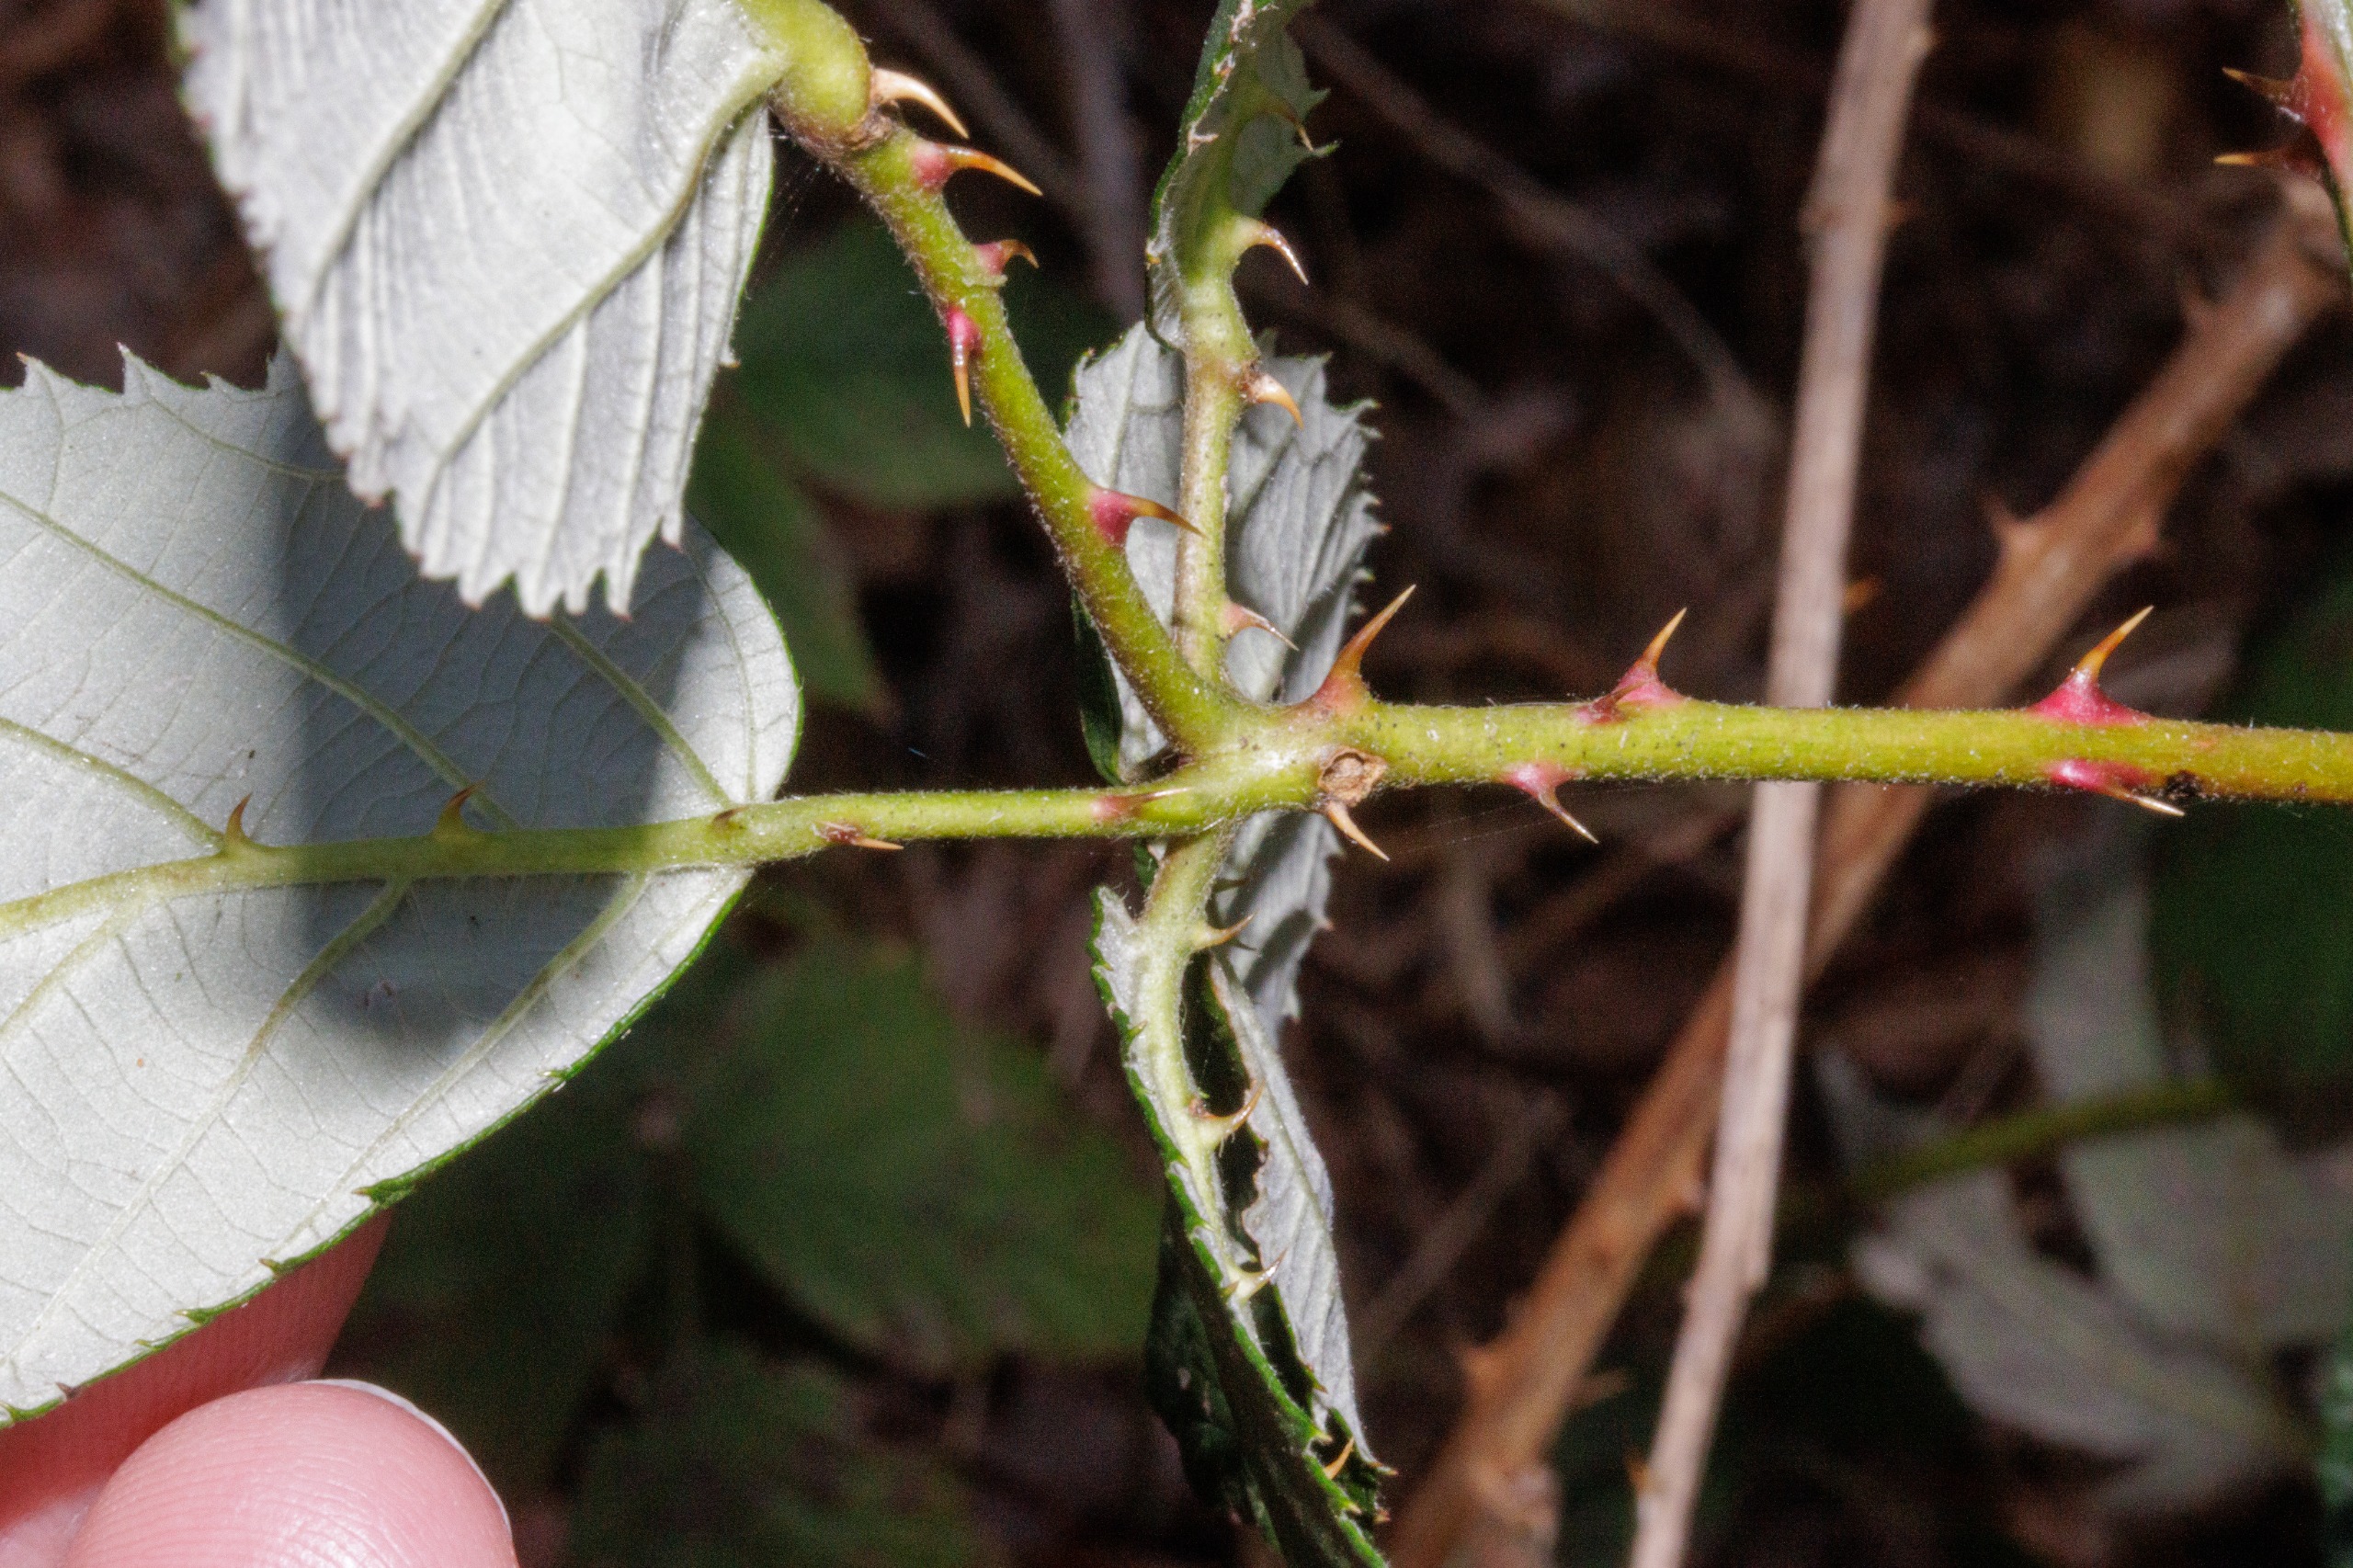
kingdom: Plantae
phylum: Tracheophyta
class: Magnoliopsida
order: Rosales
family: Rosaceae
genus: Rubus
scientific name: Rubus armeniacus
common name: Armensk brombær
